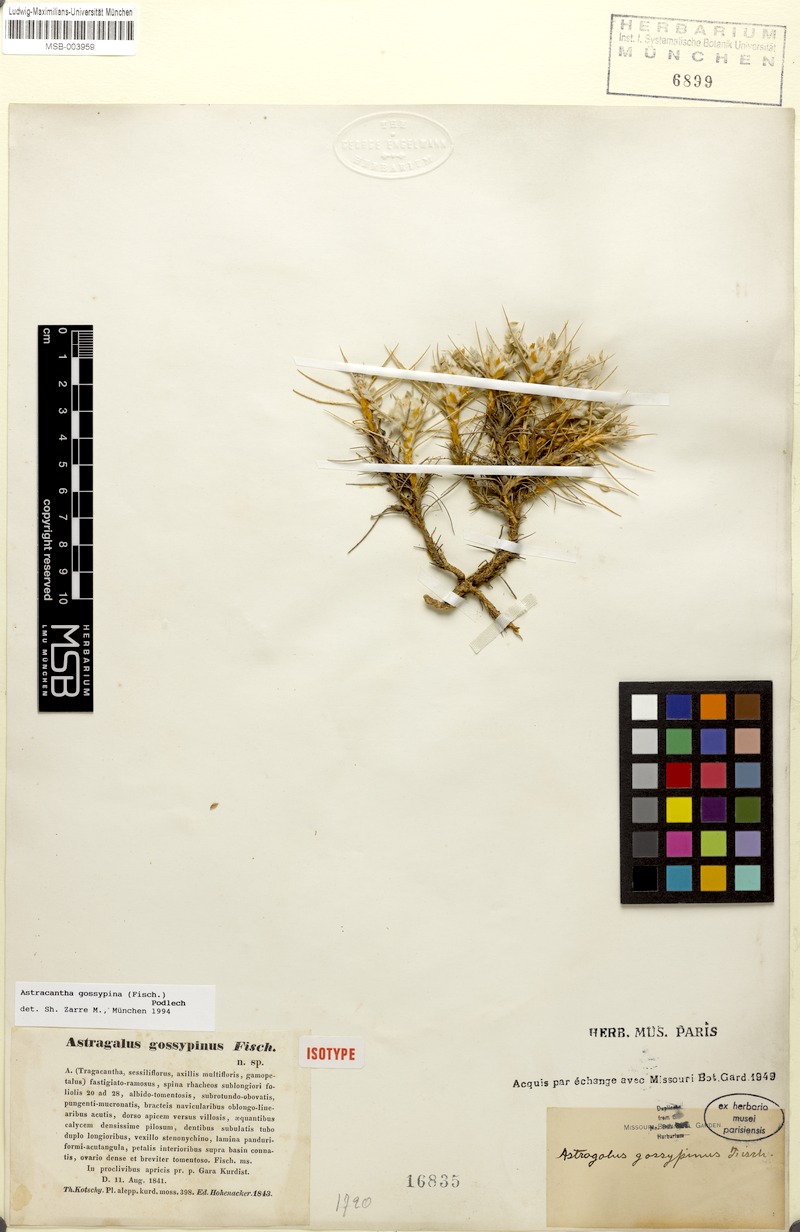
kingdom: Plantae
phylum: Tracheophyta
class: Magnoliopsida
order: Fabales
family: Fabaceae
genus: Astragalus
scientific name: Astragalus gossypinus
